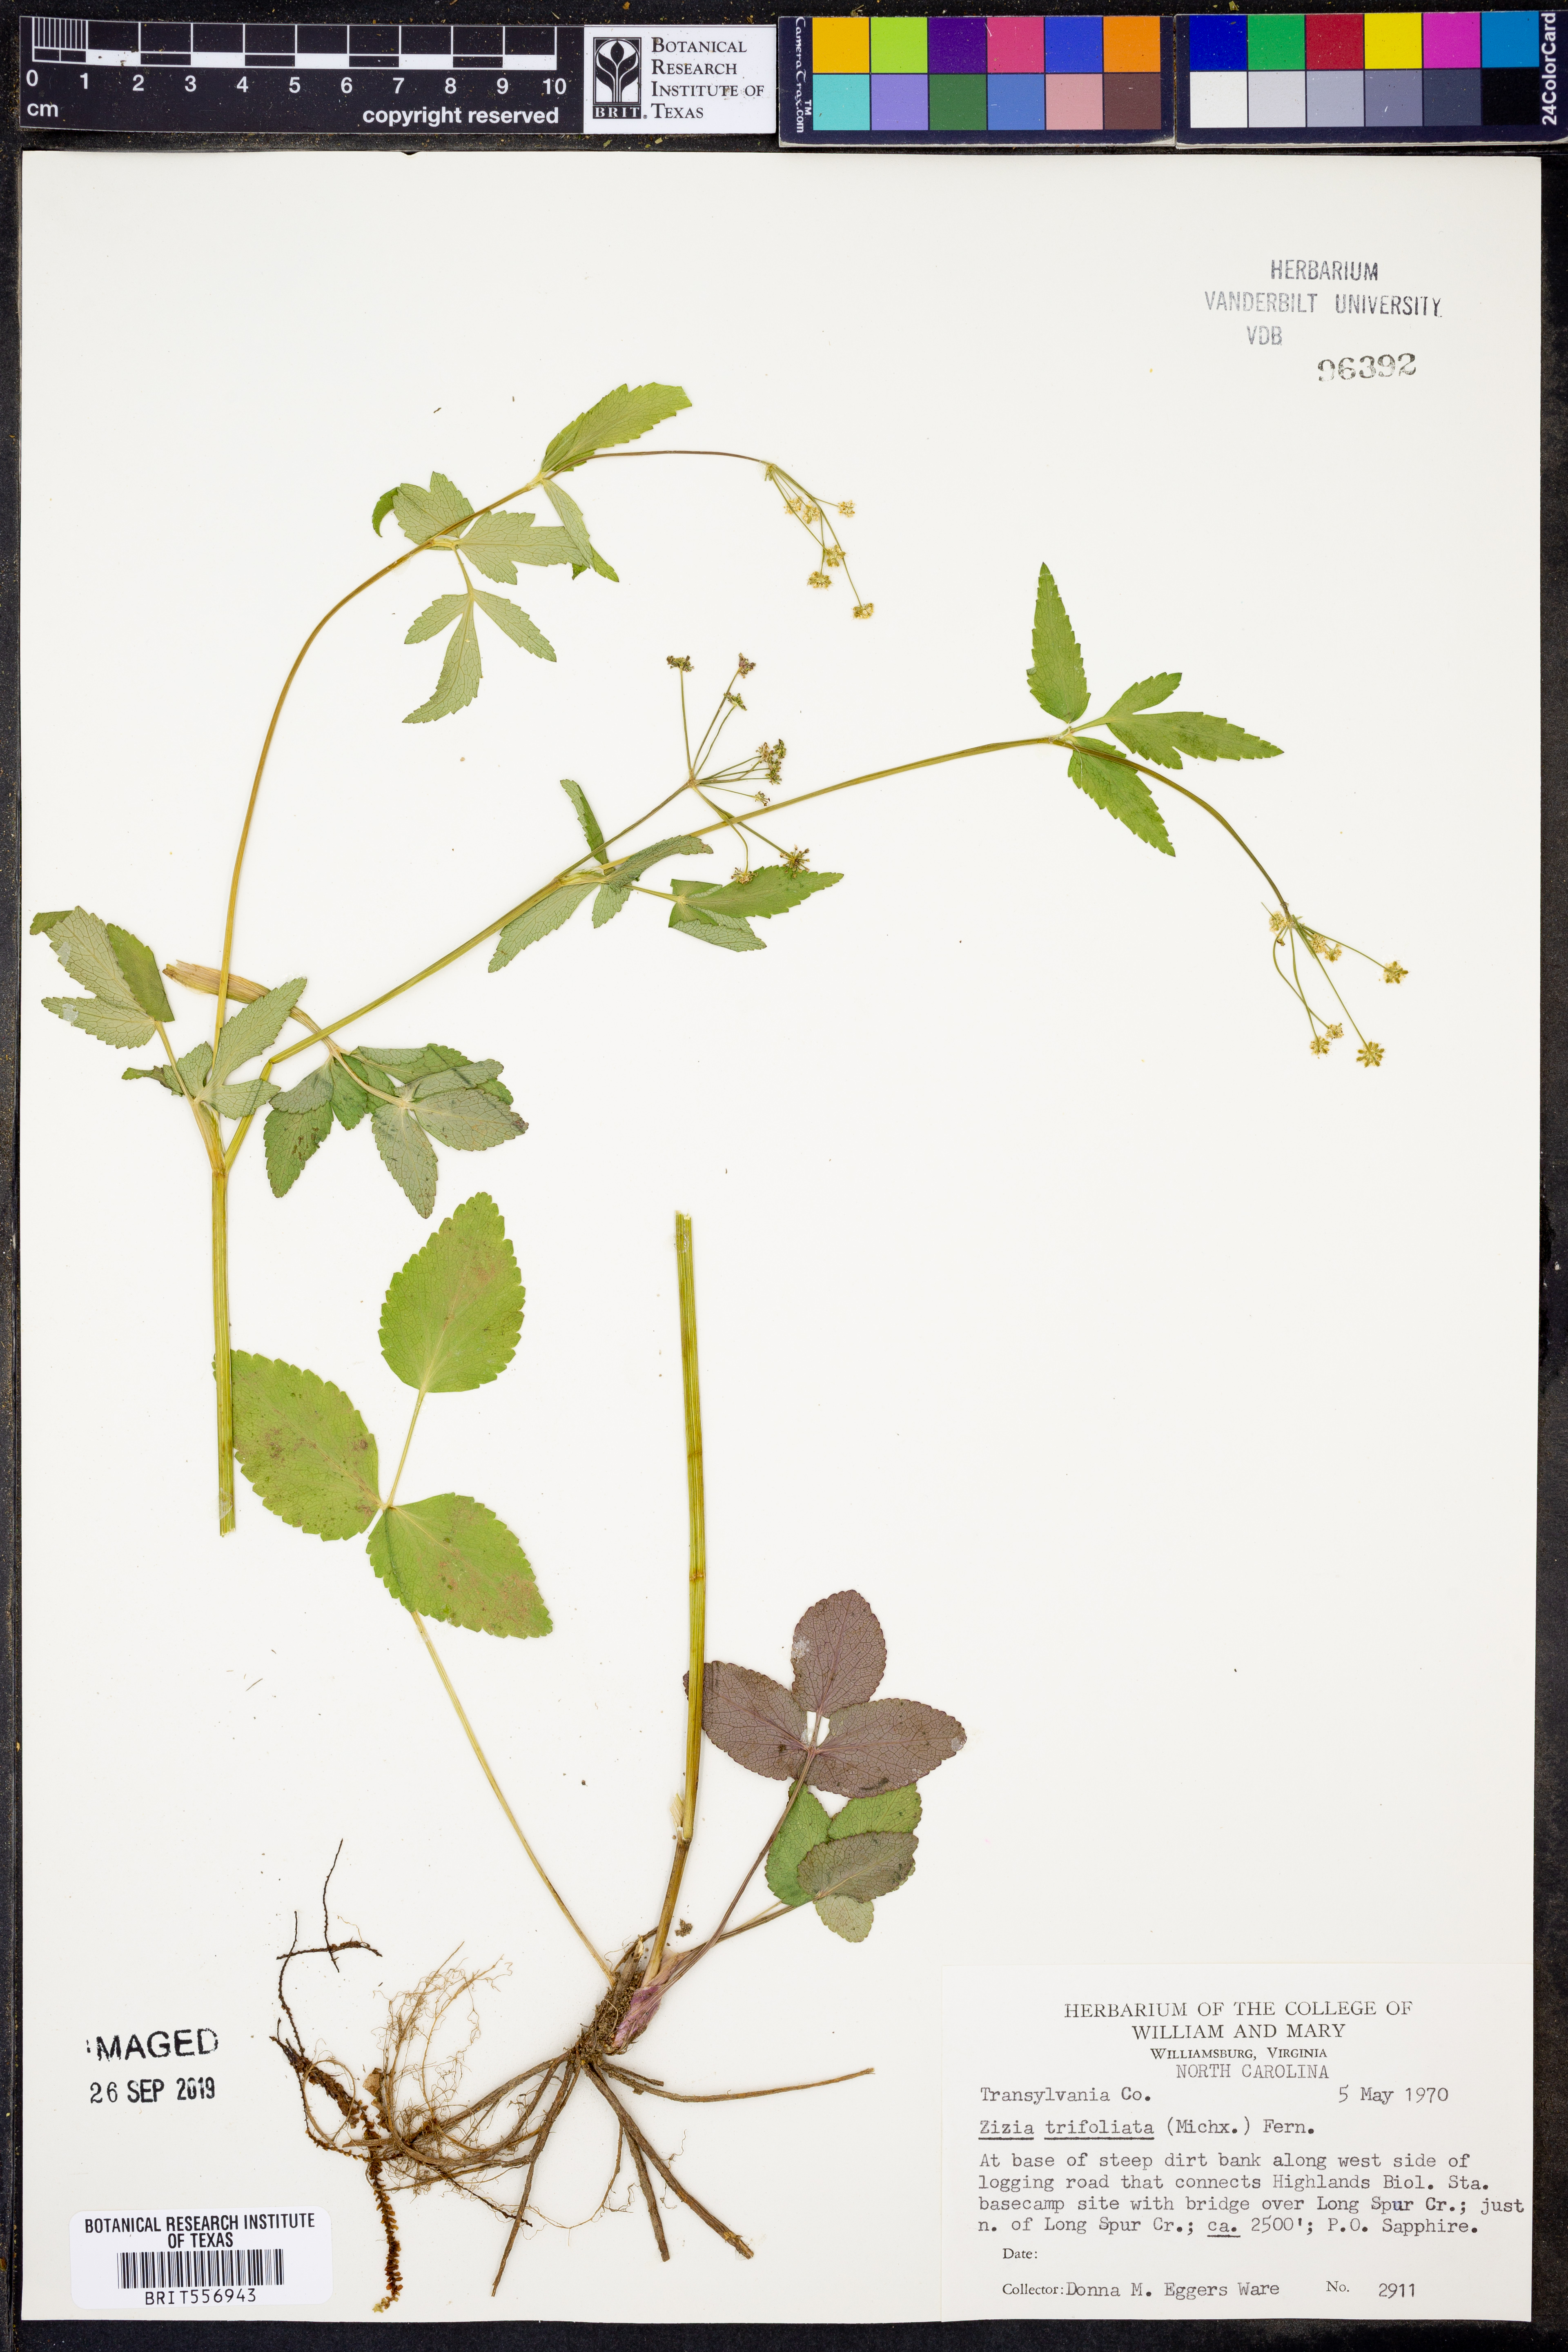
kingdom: Plantae
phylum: Tracheophyta
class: Magnoliopsida
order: Apiales
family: Apiaceae
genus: Zizia
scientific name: Zizia trifoliata
